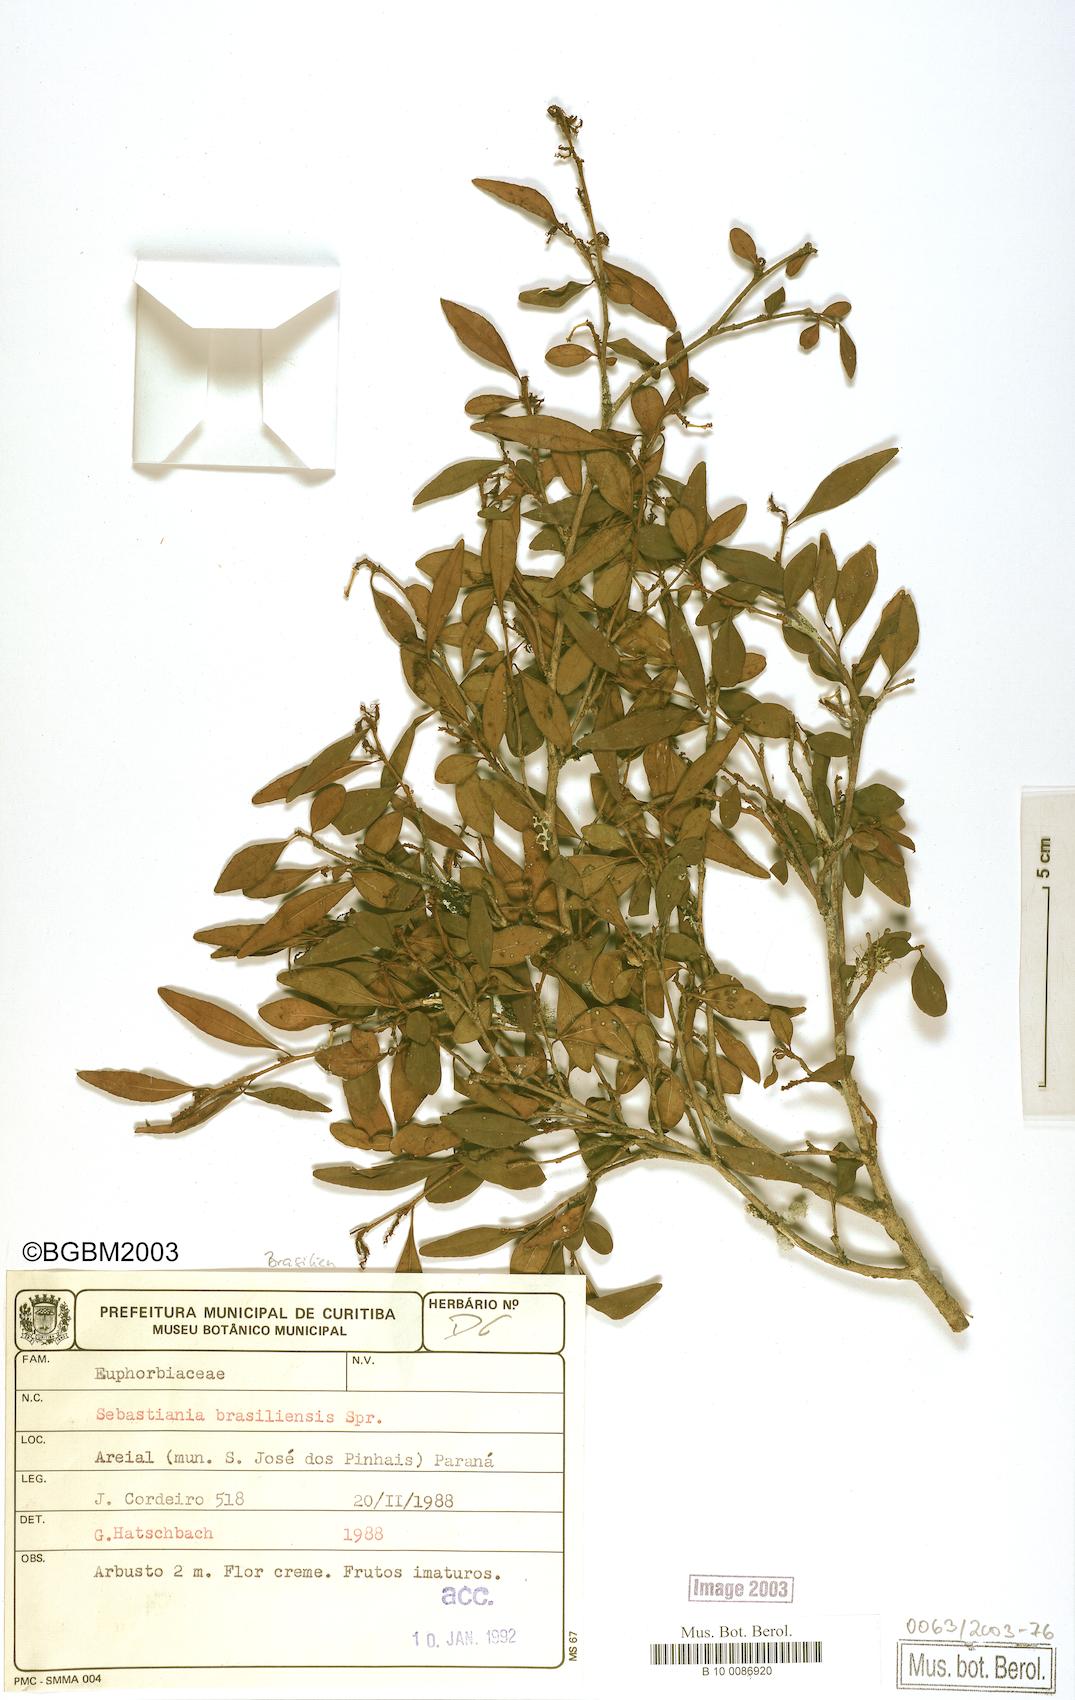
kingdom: Plantae
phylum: Tracheophyta
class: Magnoliopsida
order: Malpighiales
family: Euphorbiaceae
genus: Sebastiania
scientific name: Sebastiania brasiliensis
